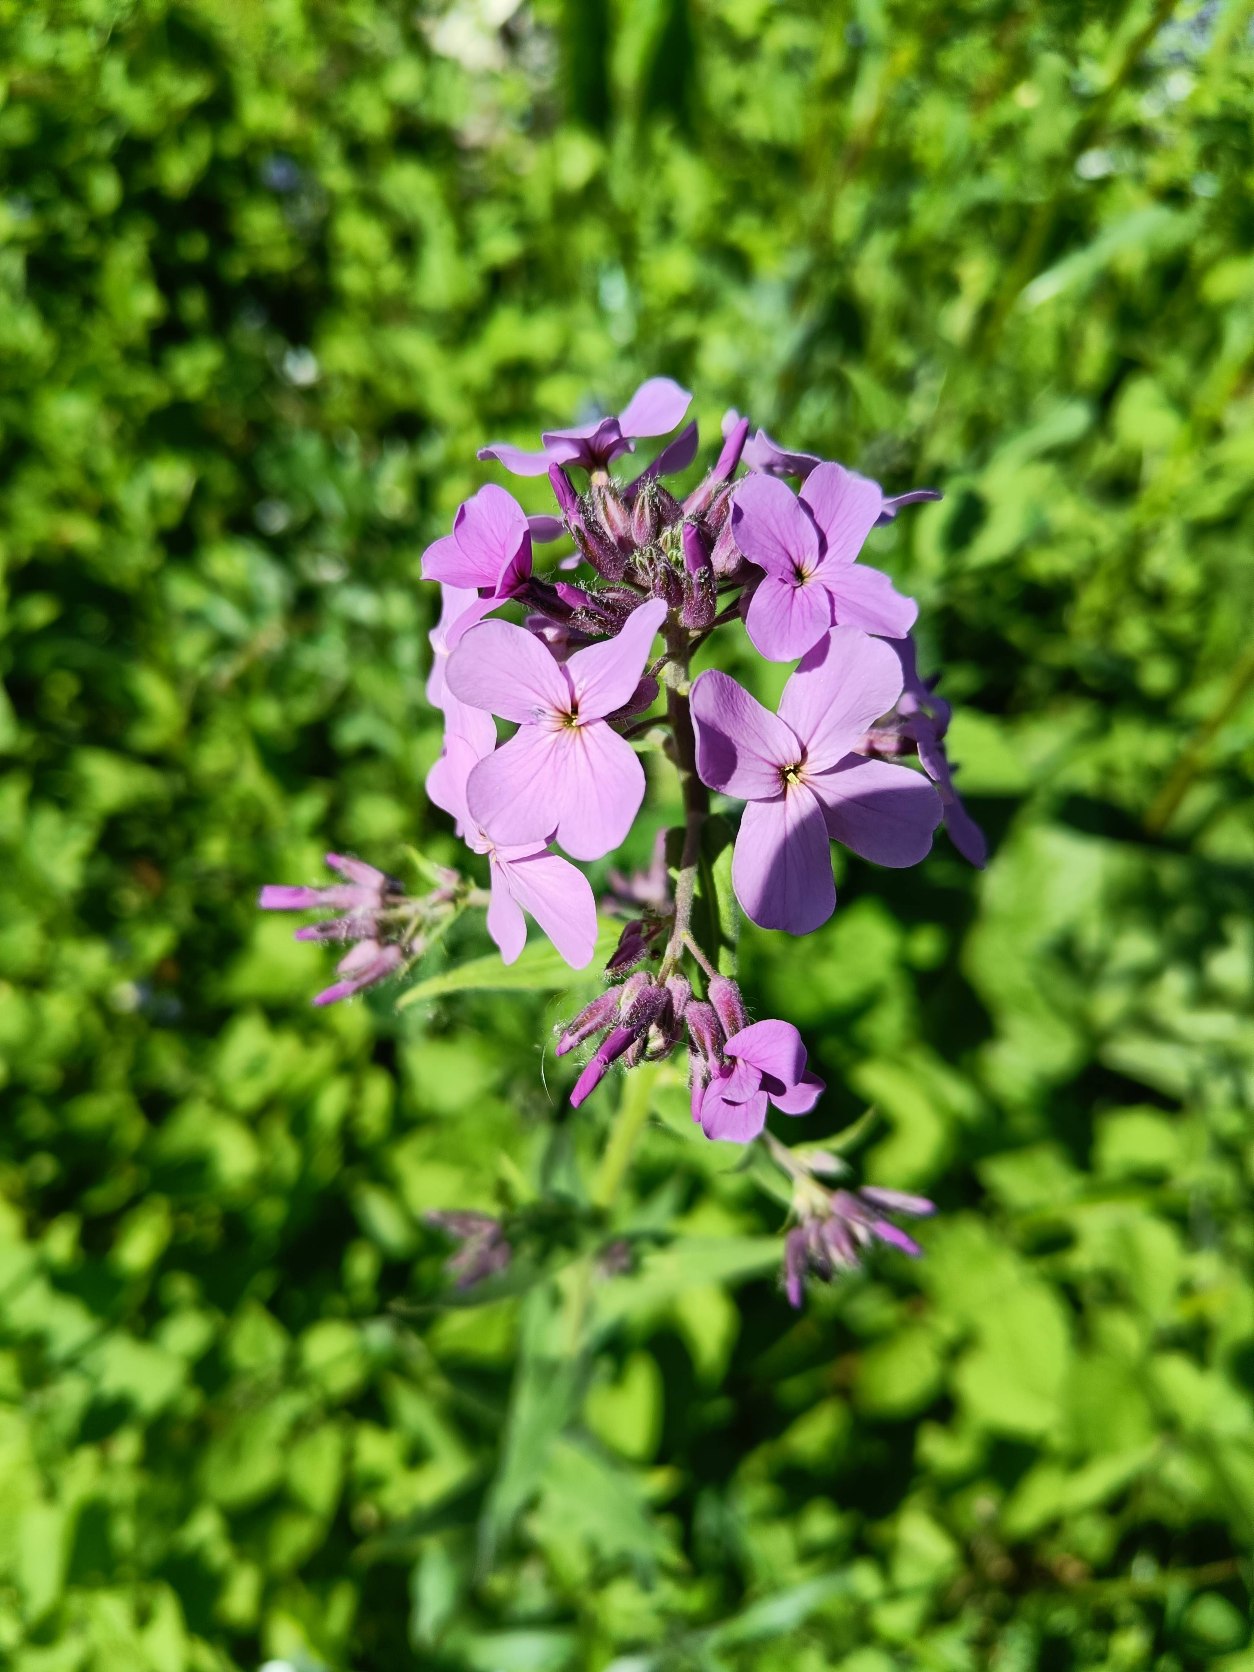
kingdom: Plantae
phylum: Tracheophyta
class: Magnoliopsida
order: Brassicales
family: Brassicaceae
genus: Hesperis
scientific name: Hesperis matronalis
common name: Aftenstjerne
